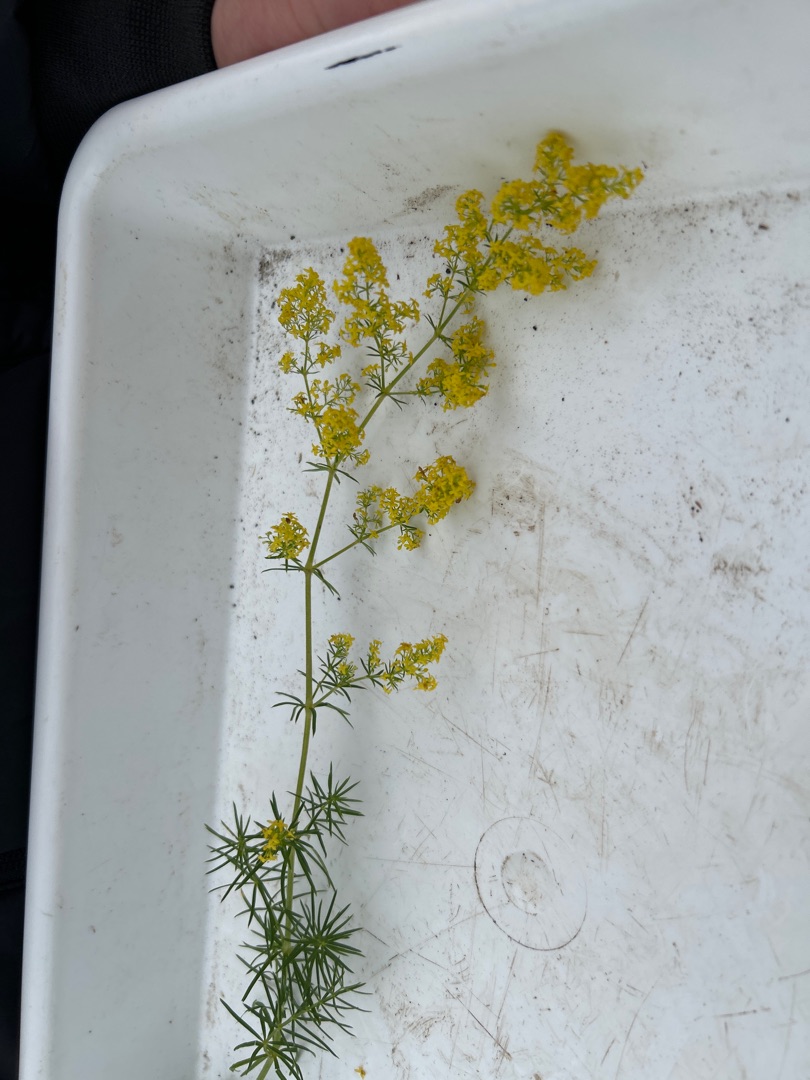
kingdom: Plantae
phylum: Tracheophyta
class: Magnoliopsida
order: Gentianales
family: Rubiaceae
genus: Galium
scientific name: Galium verum
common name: Gul snerre
